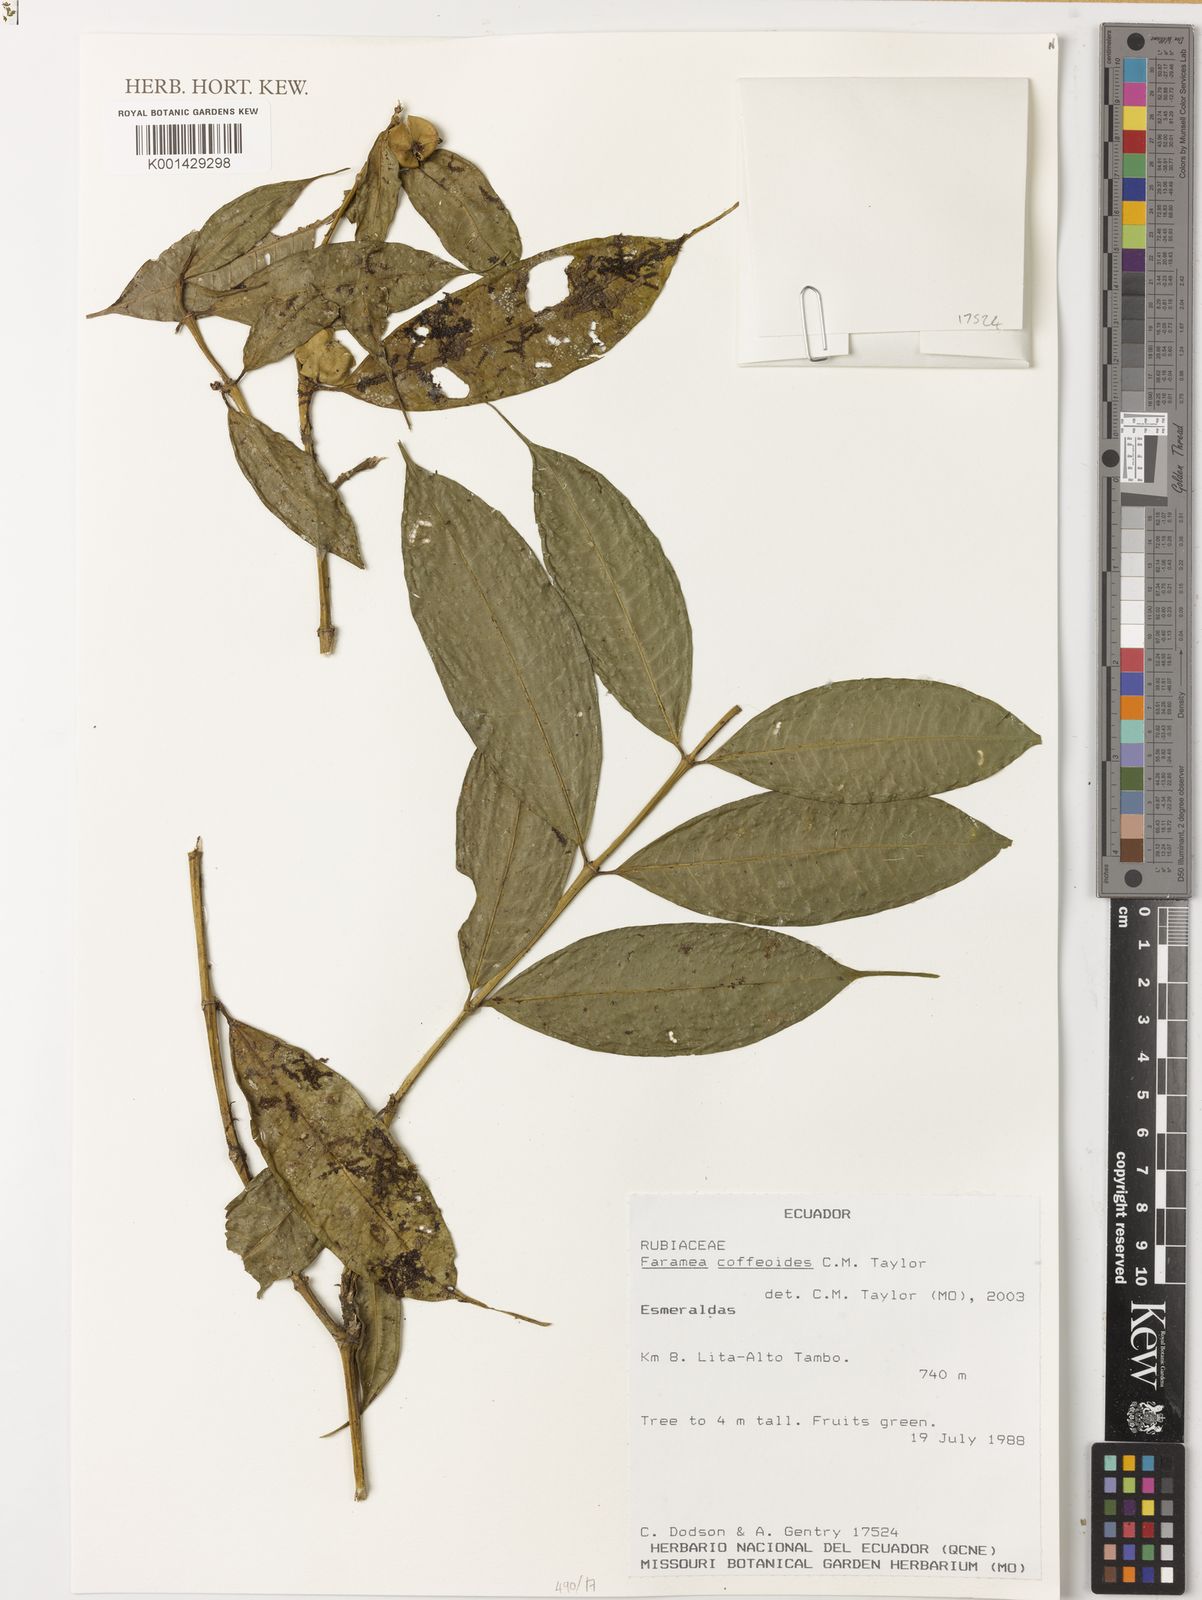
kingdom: Plantae
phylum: Tracheophyta
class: Magnoliopsida
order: Gentianales
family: Rubiaceae
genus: Faramea
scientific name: Faramea coffeoides
